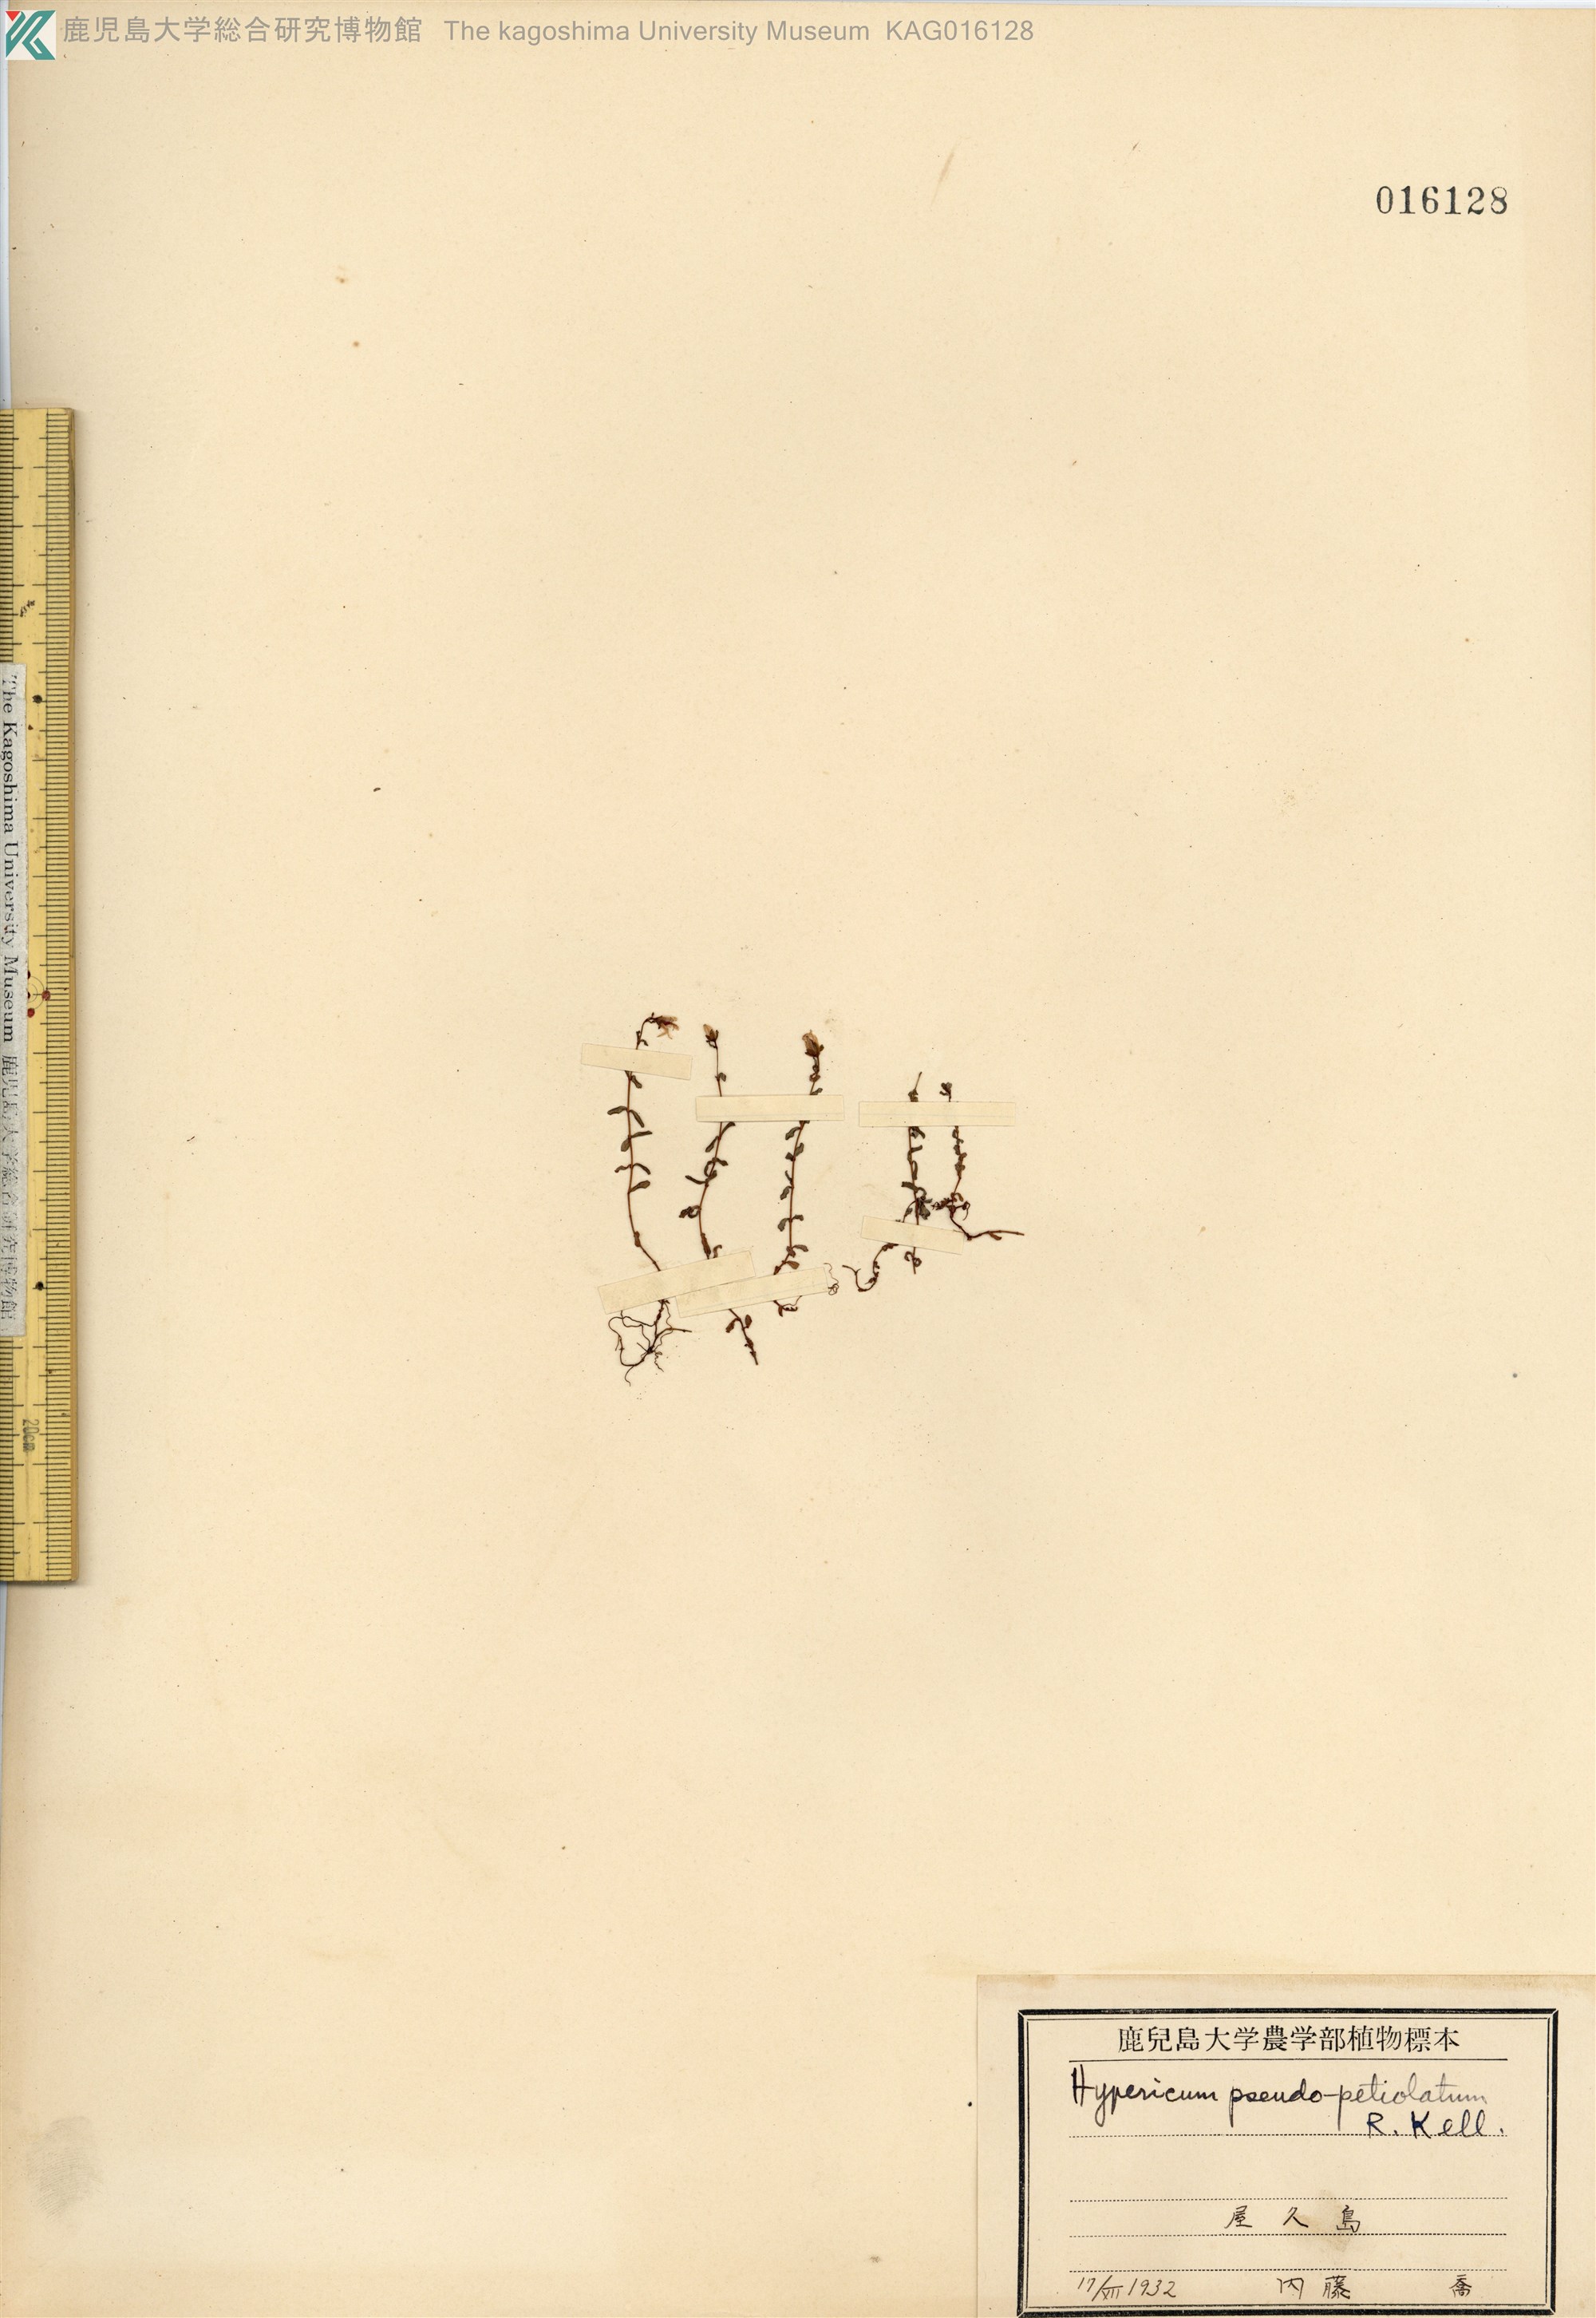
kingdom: Plantae
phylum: Tracheophyta
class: Magnoliopsida
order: Malpighiales
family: Hypericaceae
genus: Hypericum
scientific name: Hypericum pseudopetiolatum
